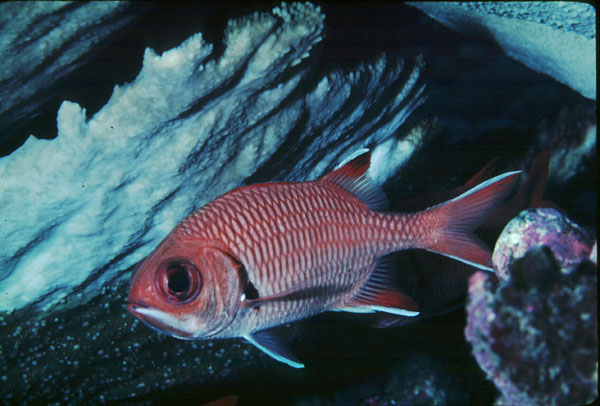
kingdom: Animalia
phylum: Chordata
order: Beryciformes
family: Holocentridae
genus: Myripristis
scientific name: Myripristis woodsi
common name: Whitespot soldierfish
